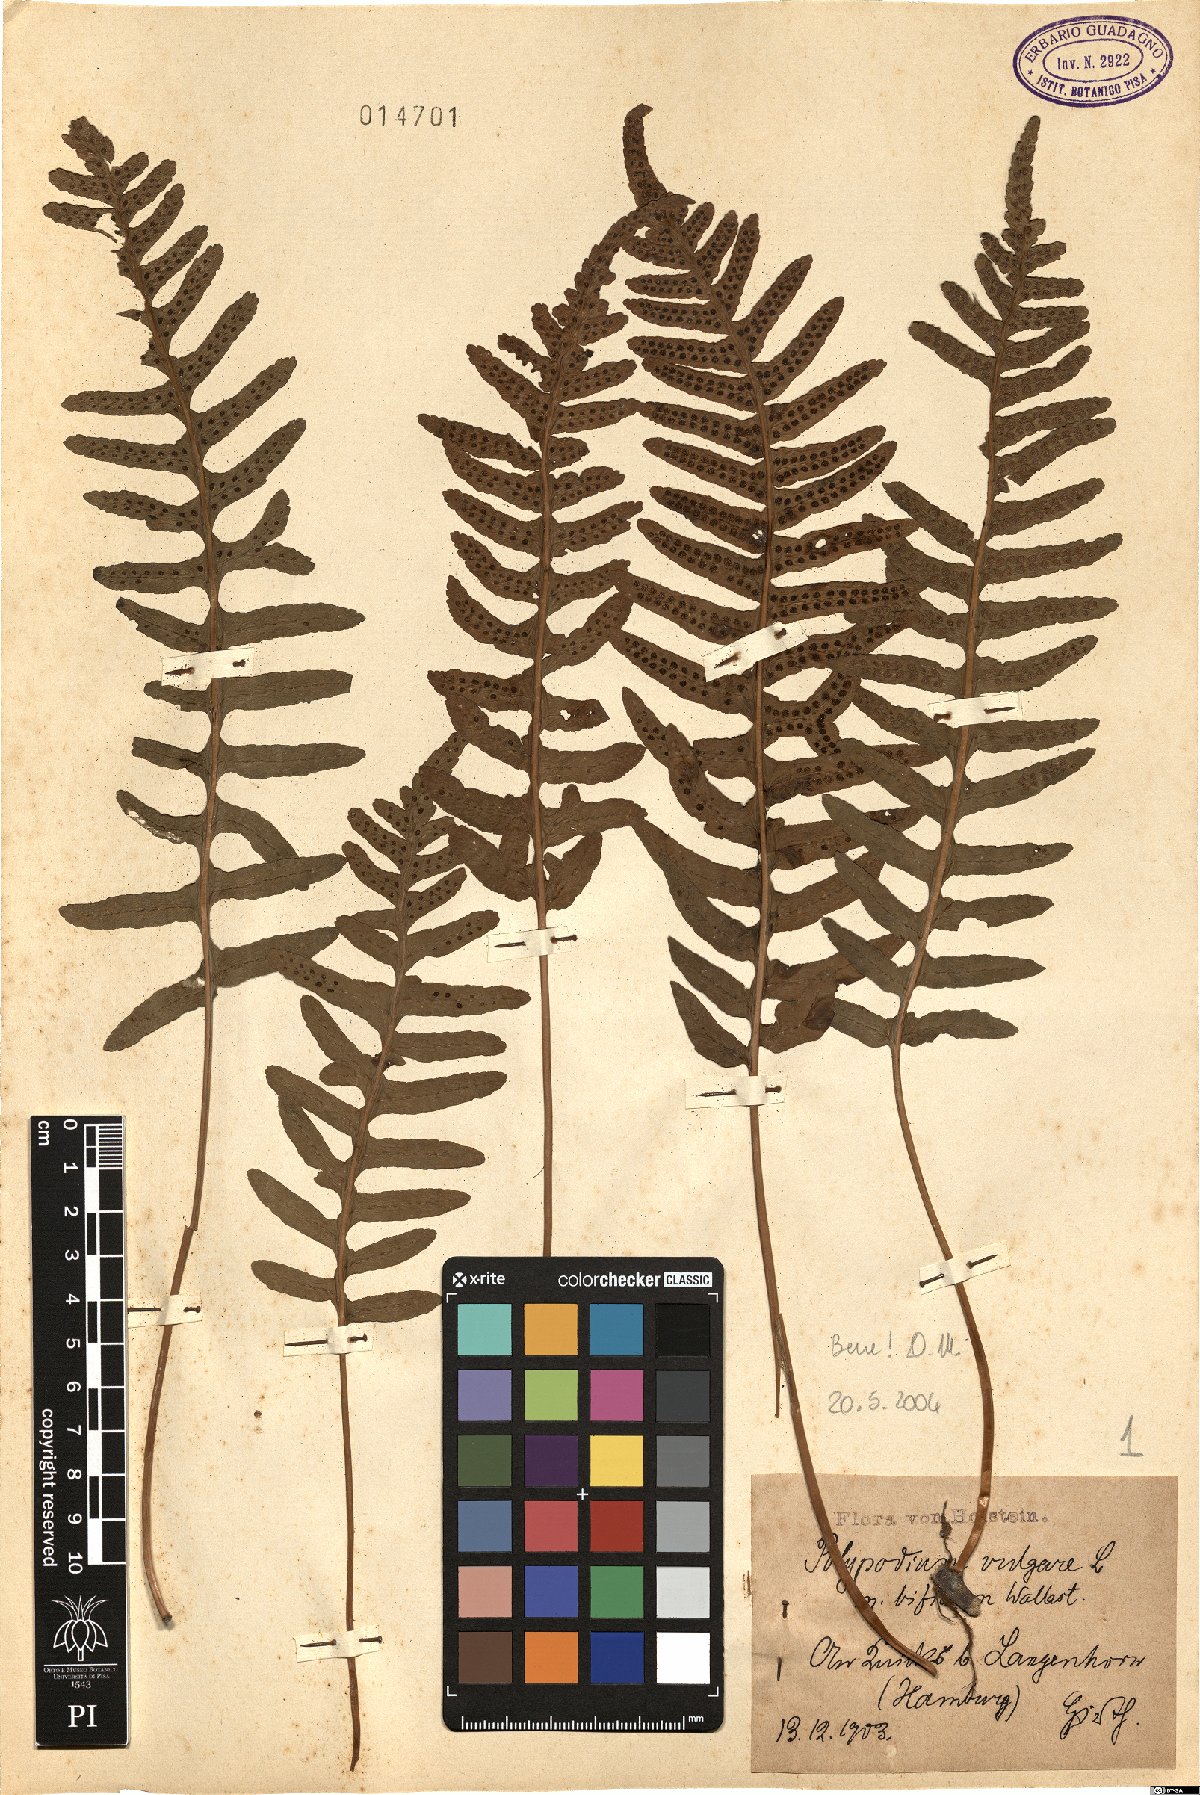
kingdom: Plantae
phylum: Tracheophyta
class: Polypodiopsida
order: Polypodiales
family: Polypodiaceae
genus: Polypodium
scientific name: Polypodium vulgare
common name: Common polypody
